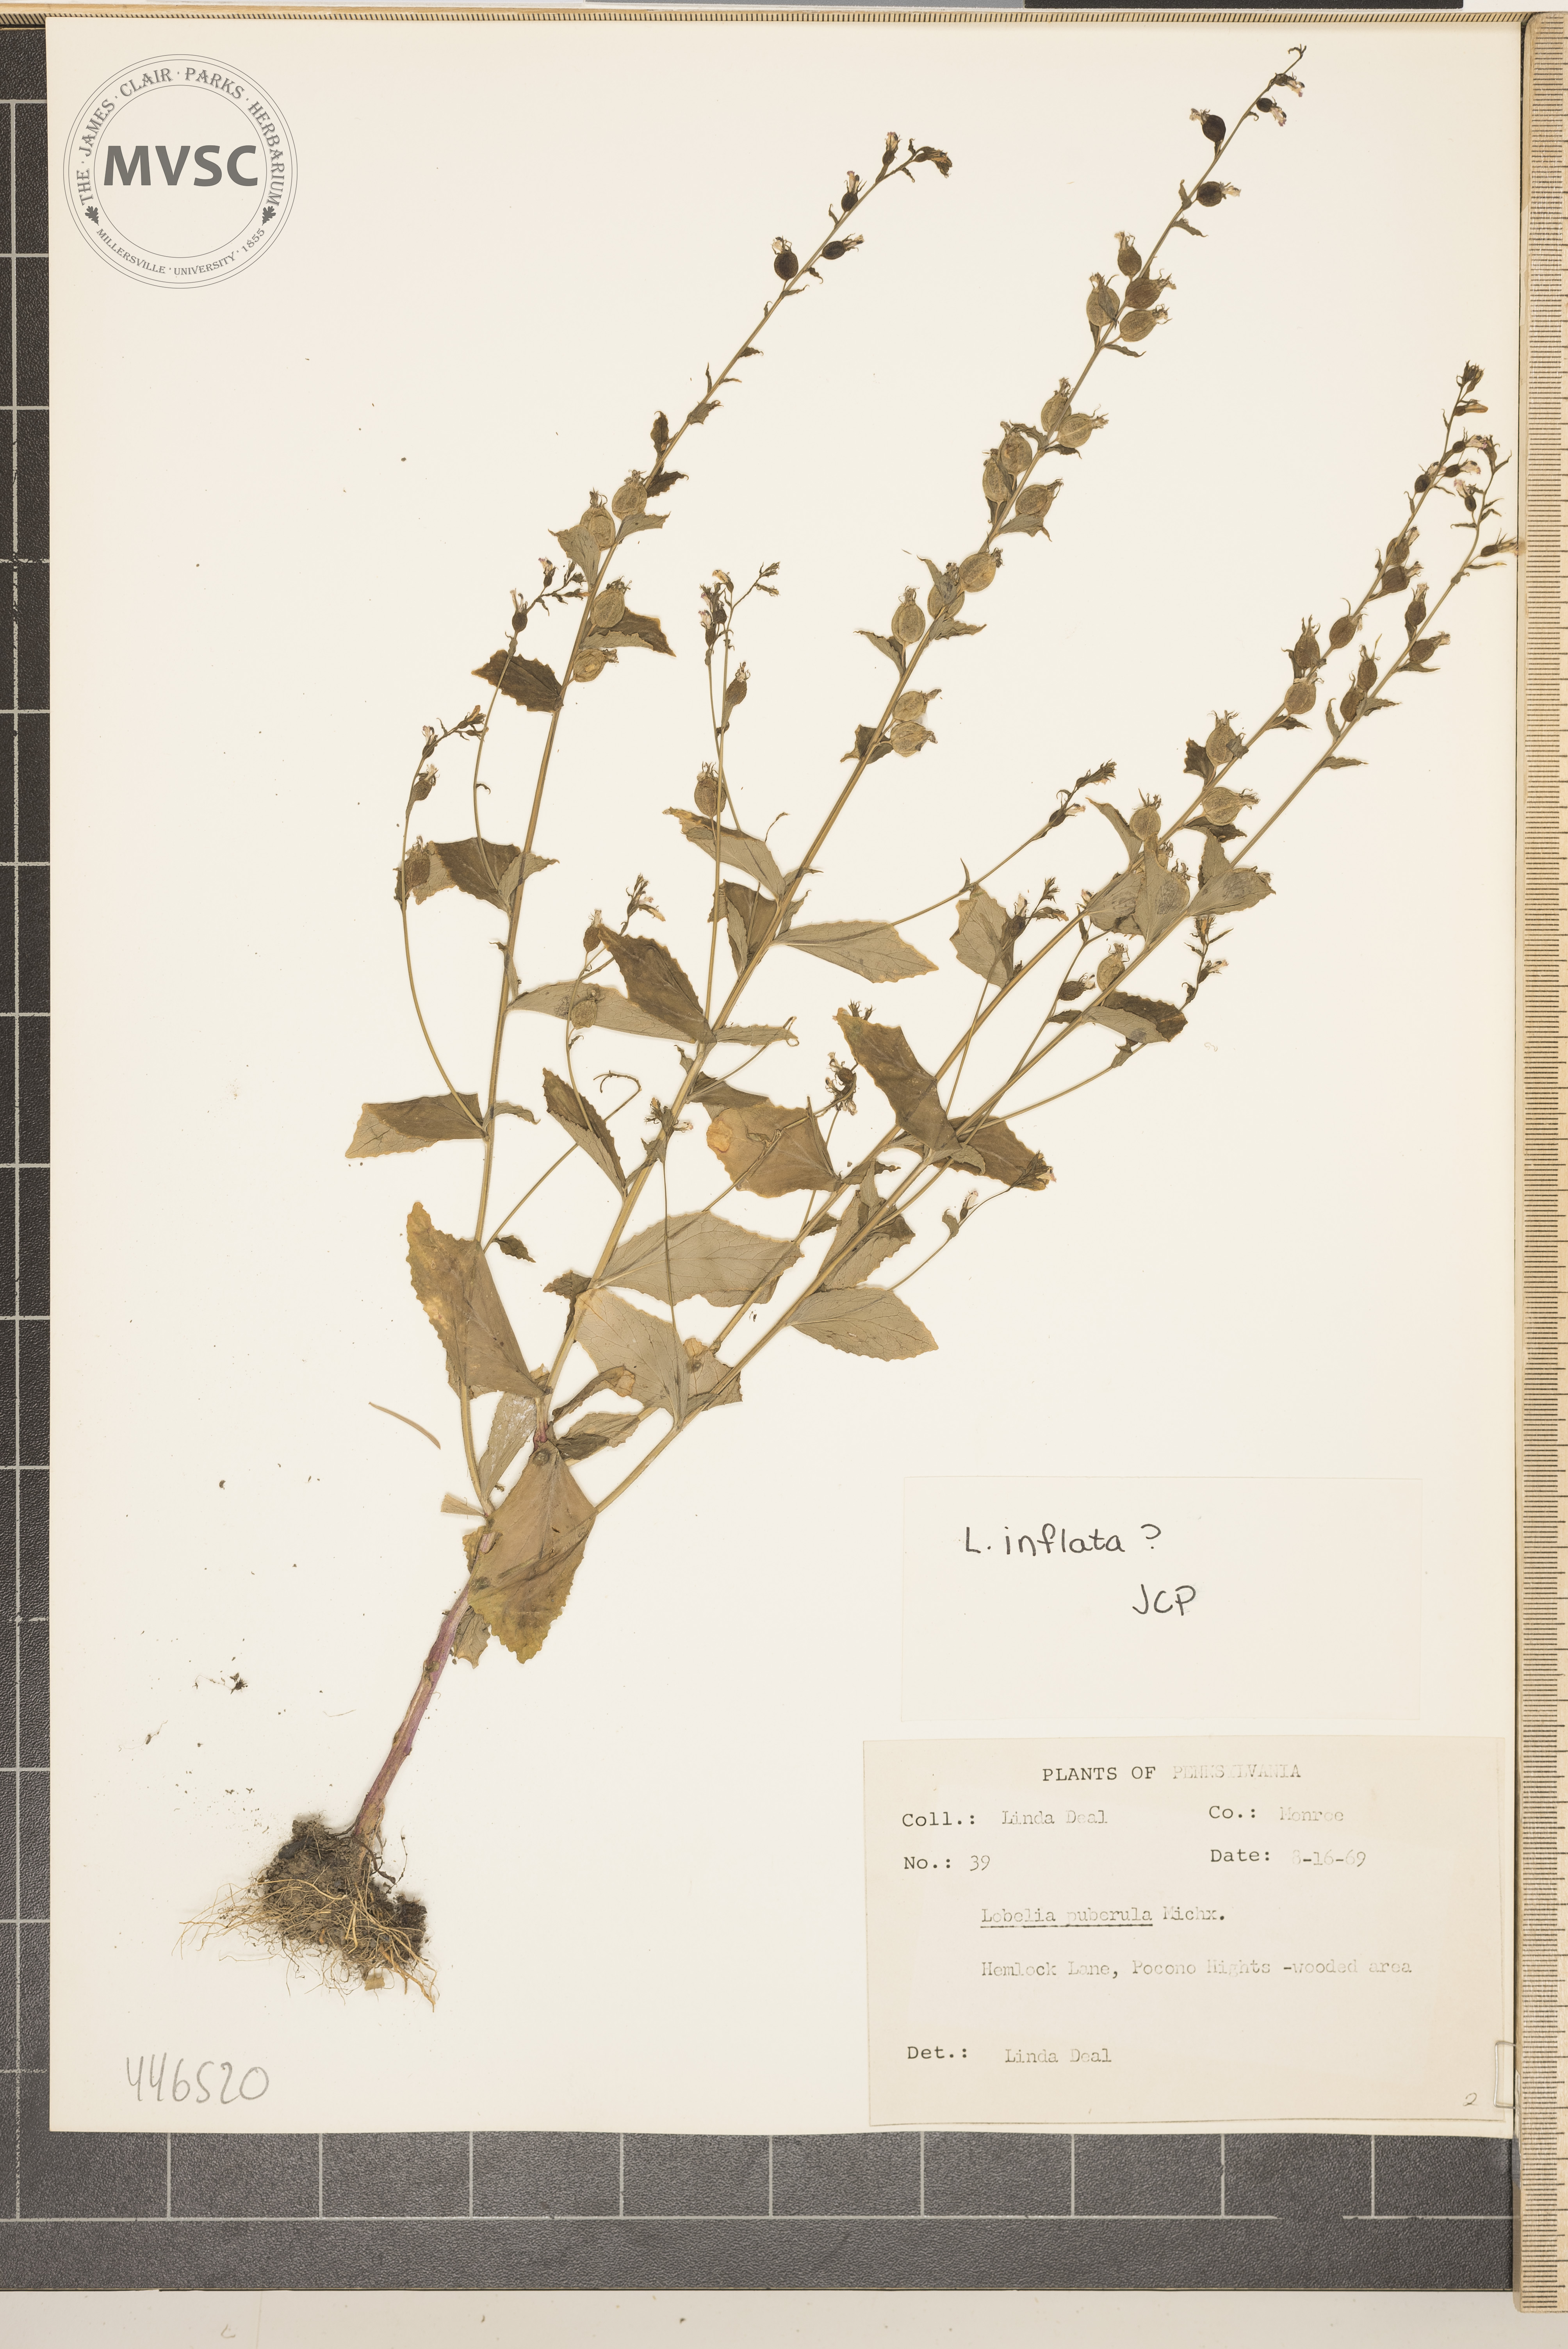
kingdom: Plantae
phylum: Tracheophyta
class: Magnoliopsida
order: Asterales
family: Campanulaceae
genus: Lobelia
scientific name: Lobelia inflata
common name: Indian tabacco
